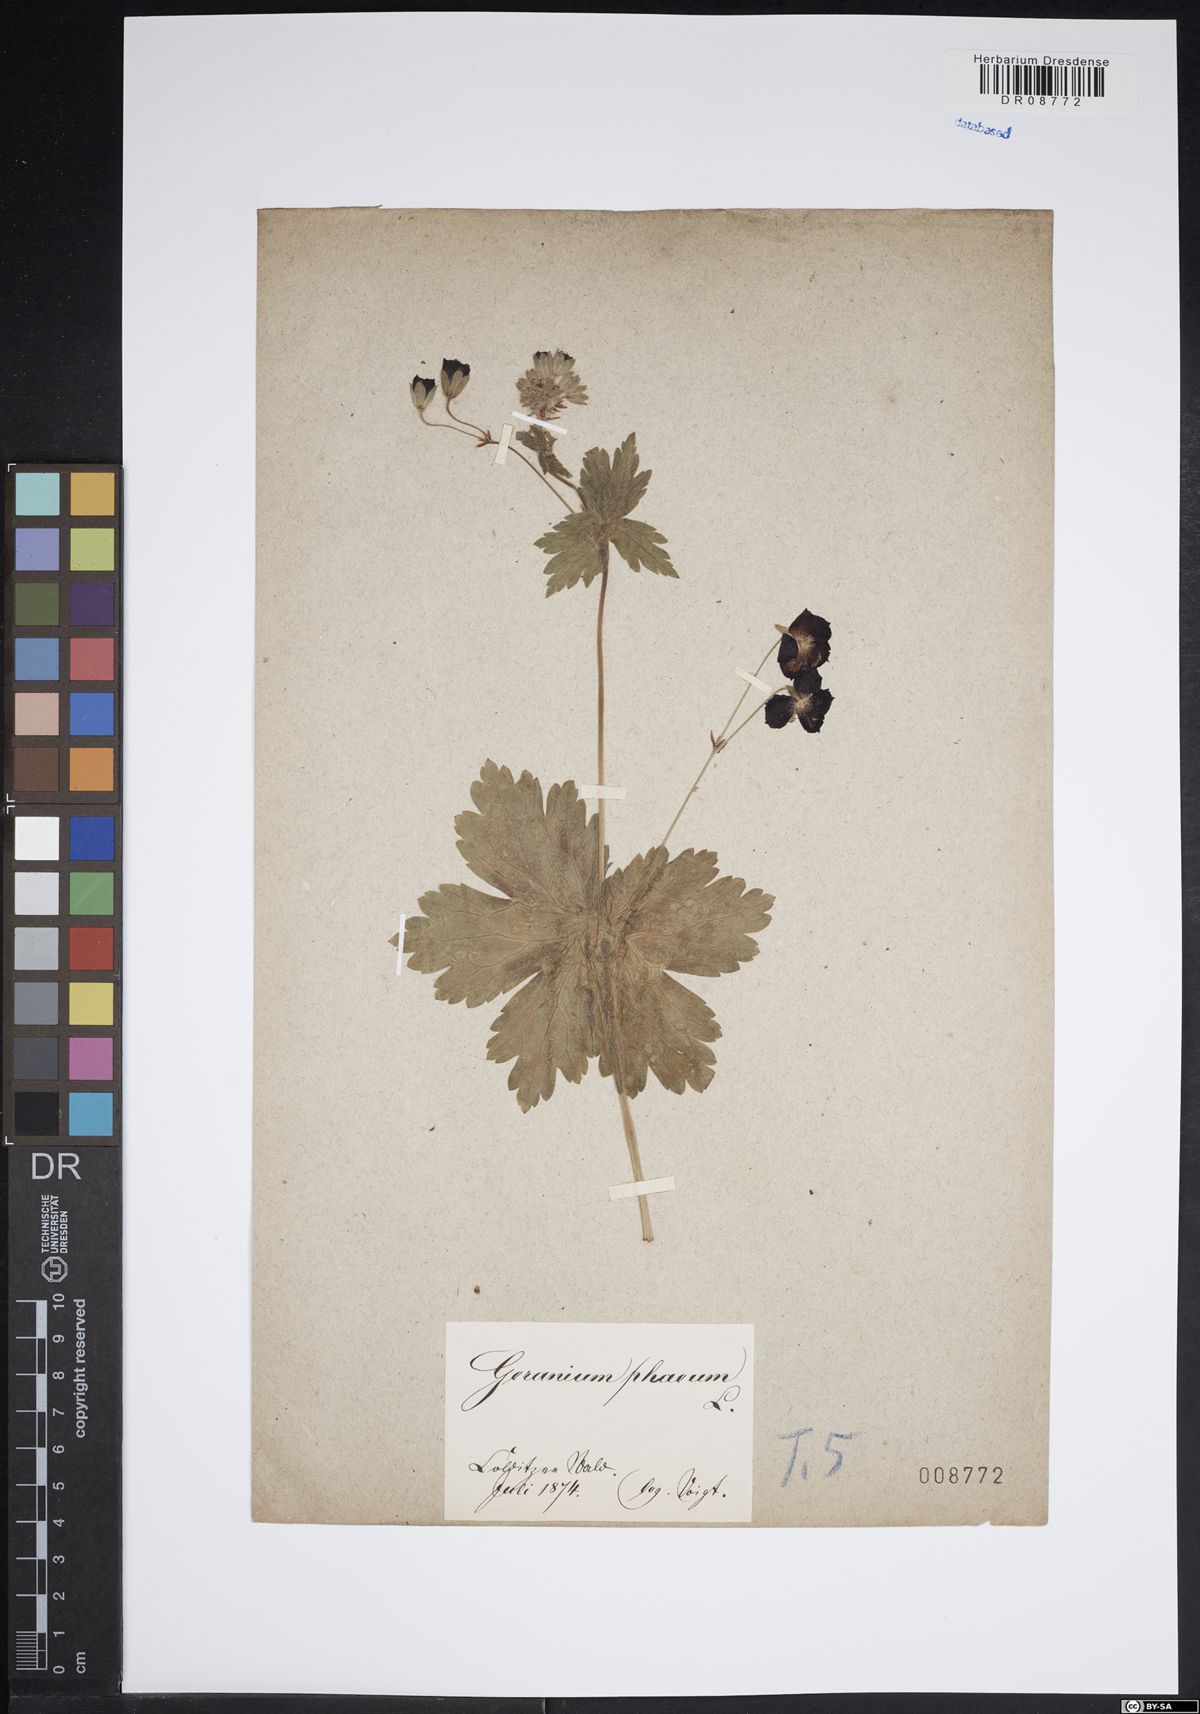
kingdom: Plantae
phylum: Tracheophyta
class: Magnoliopsida
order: Geraniales
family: Geraniaceae
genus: Geranium
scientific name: Geranium phaeum
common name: Dusky crane's-bill
